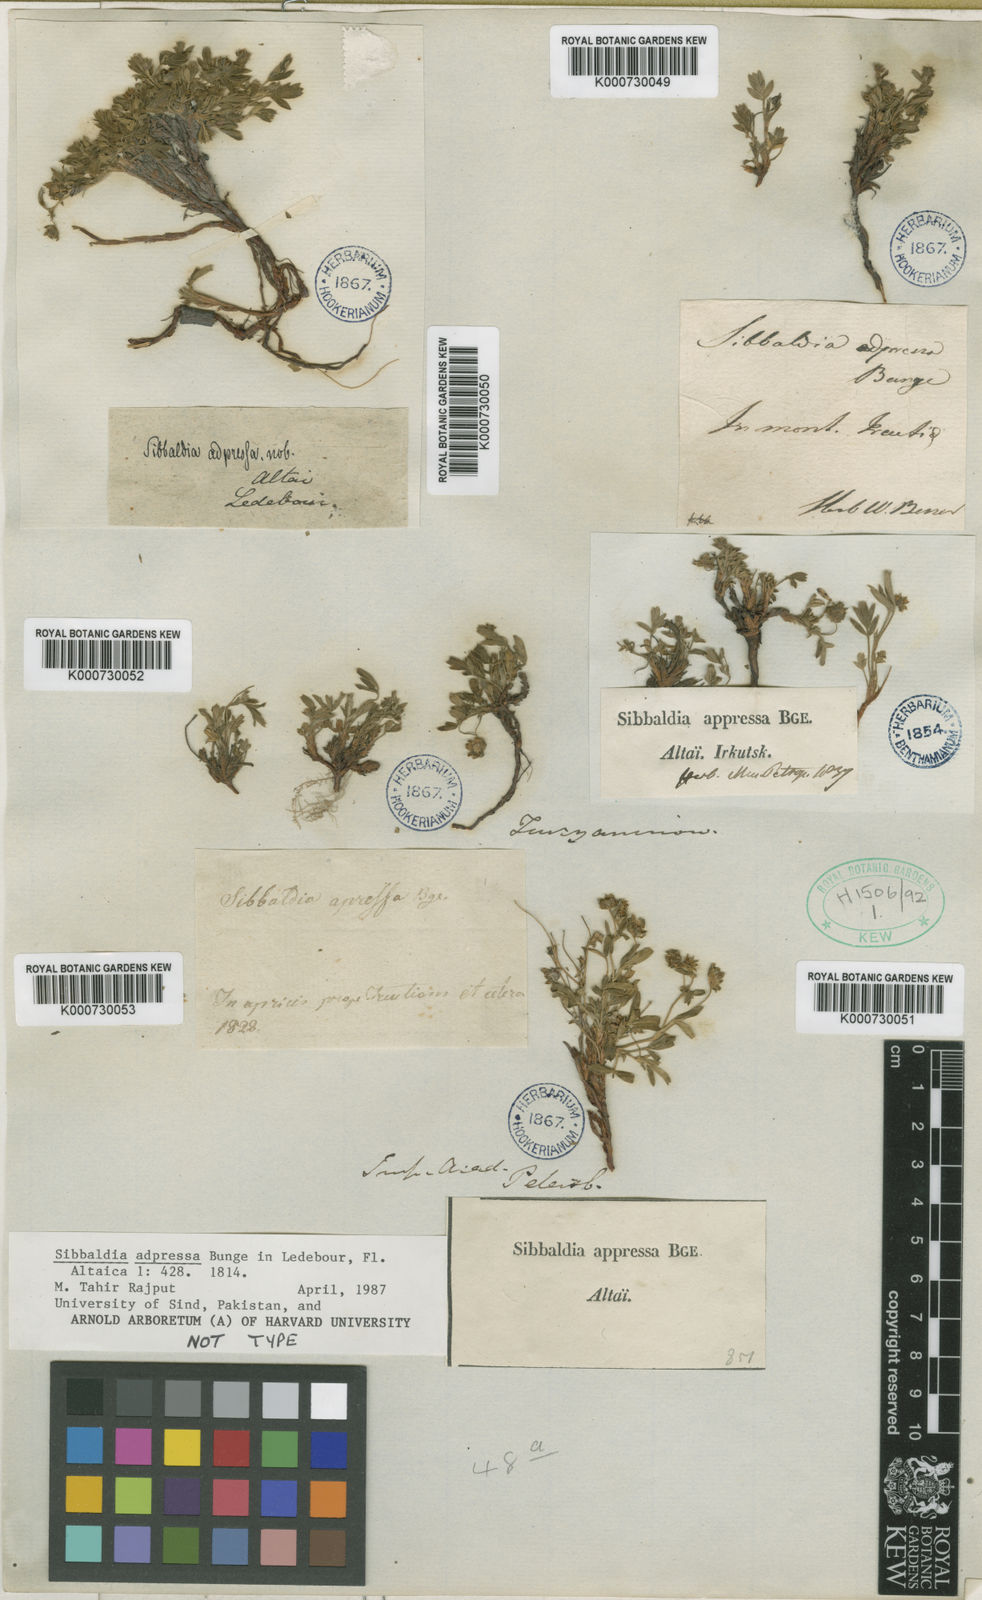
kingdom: Plantae
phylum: Tracheophyta
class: Magnoliopsida
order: Rosales
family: Rosaceae
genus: Sibbaldianthe
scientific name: Sibbaldianthe adpressa
